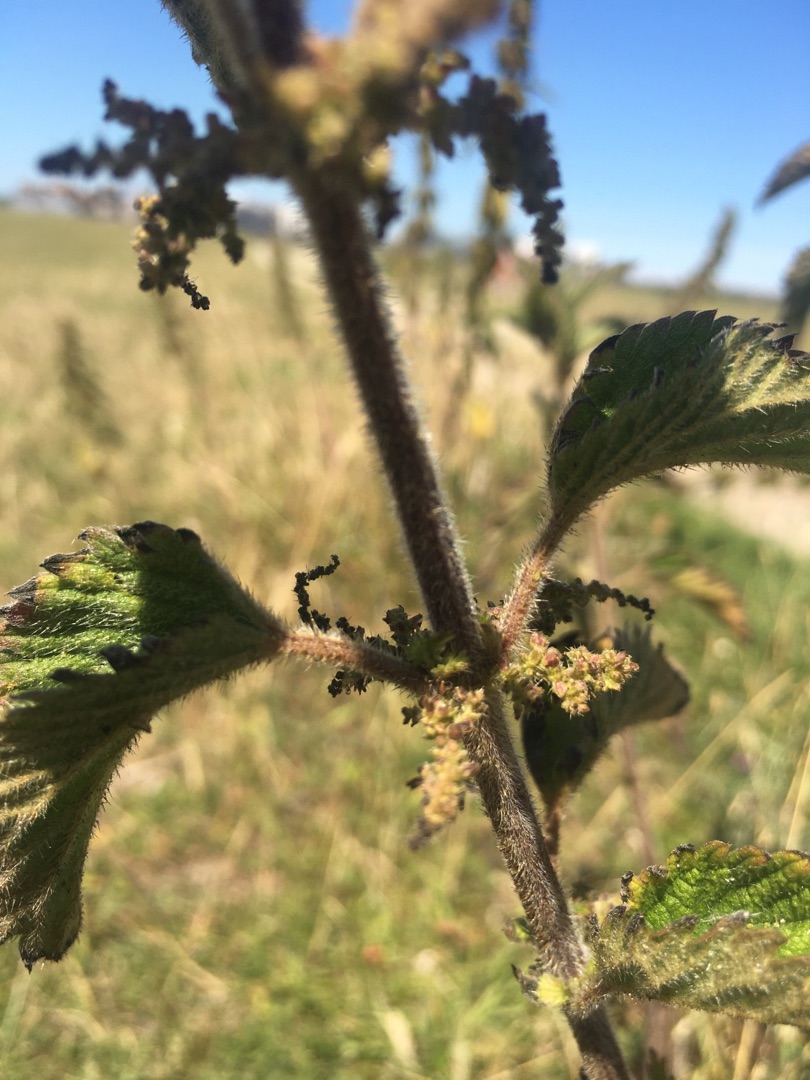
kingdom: Plantae
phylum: Tracheophyta
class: Magnoliopsida
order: Rosales
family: Urticaceae
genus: Urtica
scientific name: Urtica dioica
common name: Stor nælde
